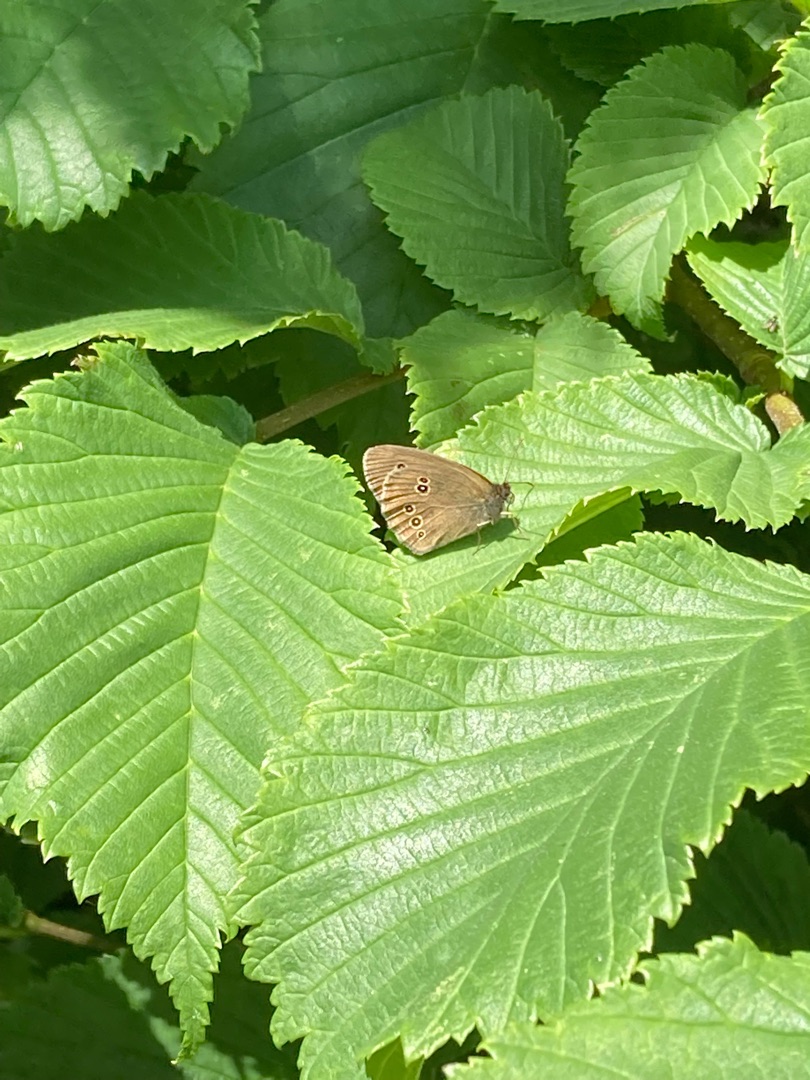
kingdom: Animalia
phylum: Arthropoda
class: Insecta
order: Lepidoptera
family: Nymphalidae
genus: Aphantopus
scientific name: Aphantopus hyperantus
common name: Engrandøje
